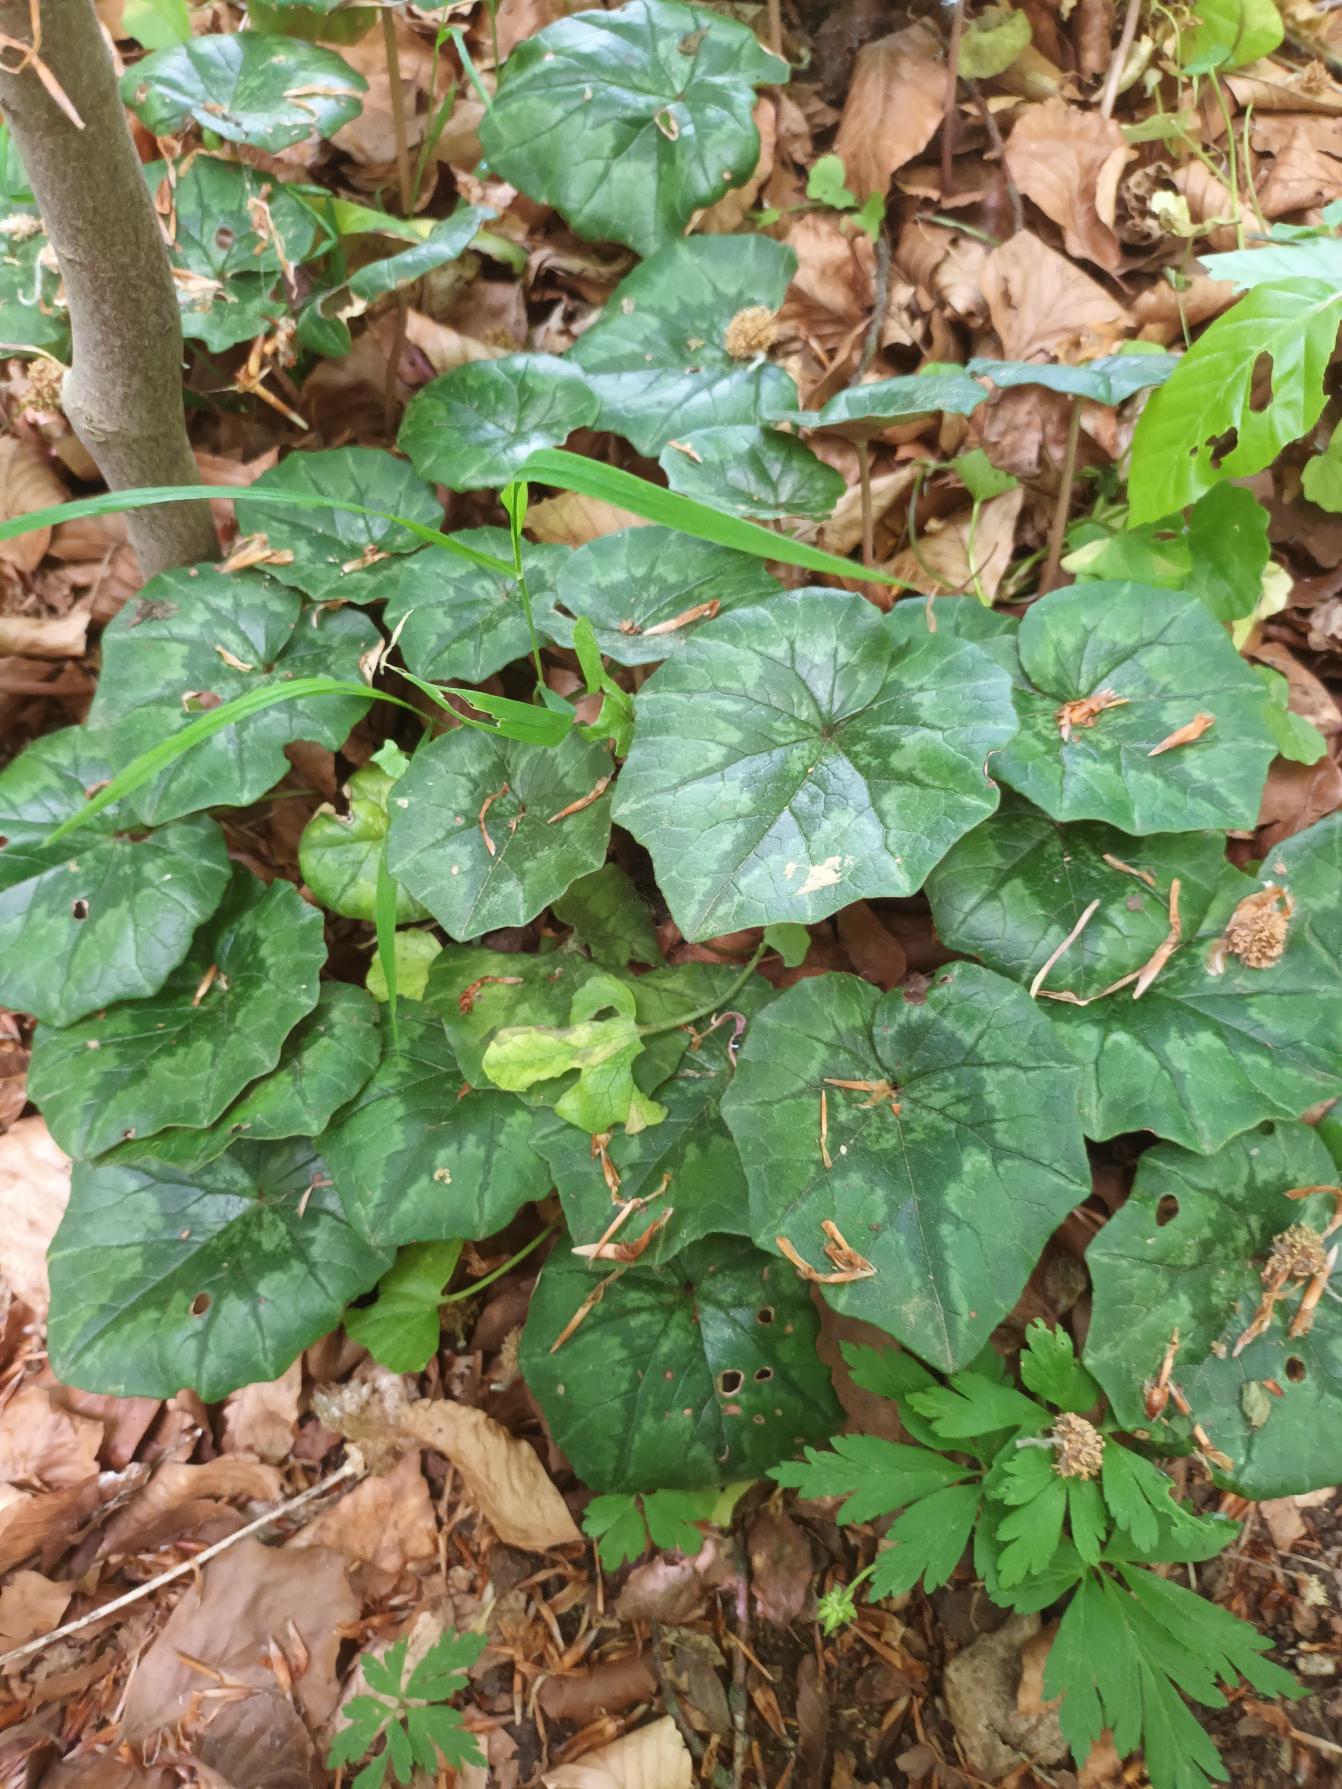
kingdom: Plantae
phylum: Tracheophyta
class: Magnoliopsida
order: Ericales
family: Primulaceae
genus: Cyclamen
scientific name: Cyclamen hederifolium
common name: Vedbendbladet alpeviol
